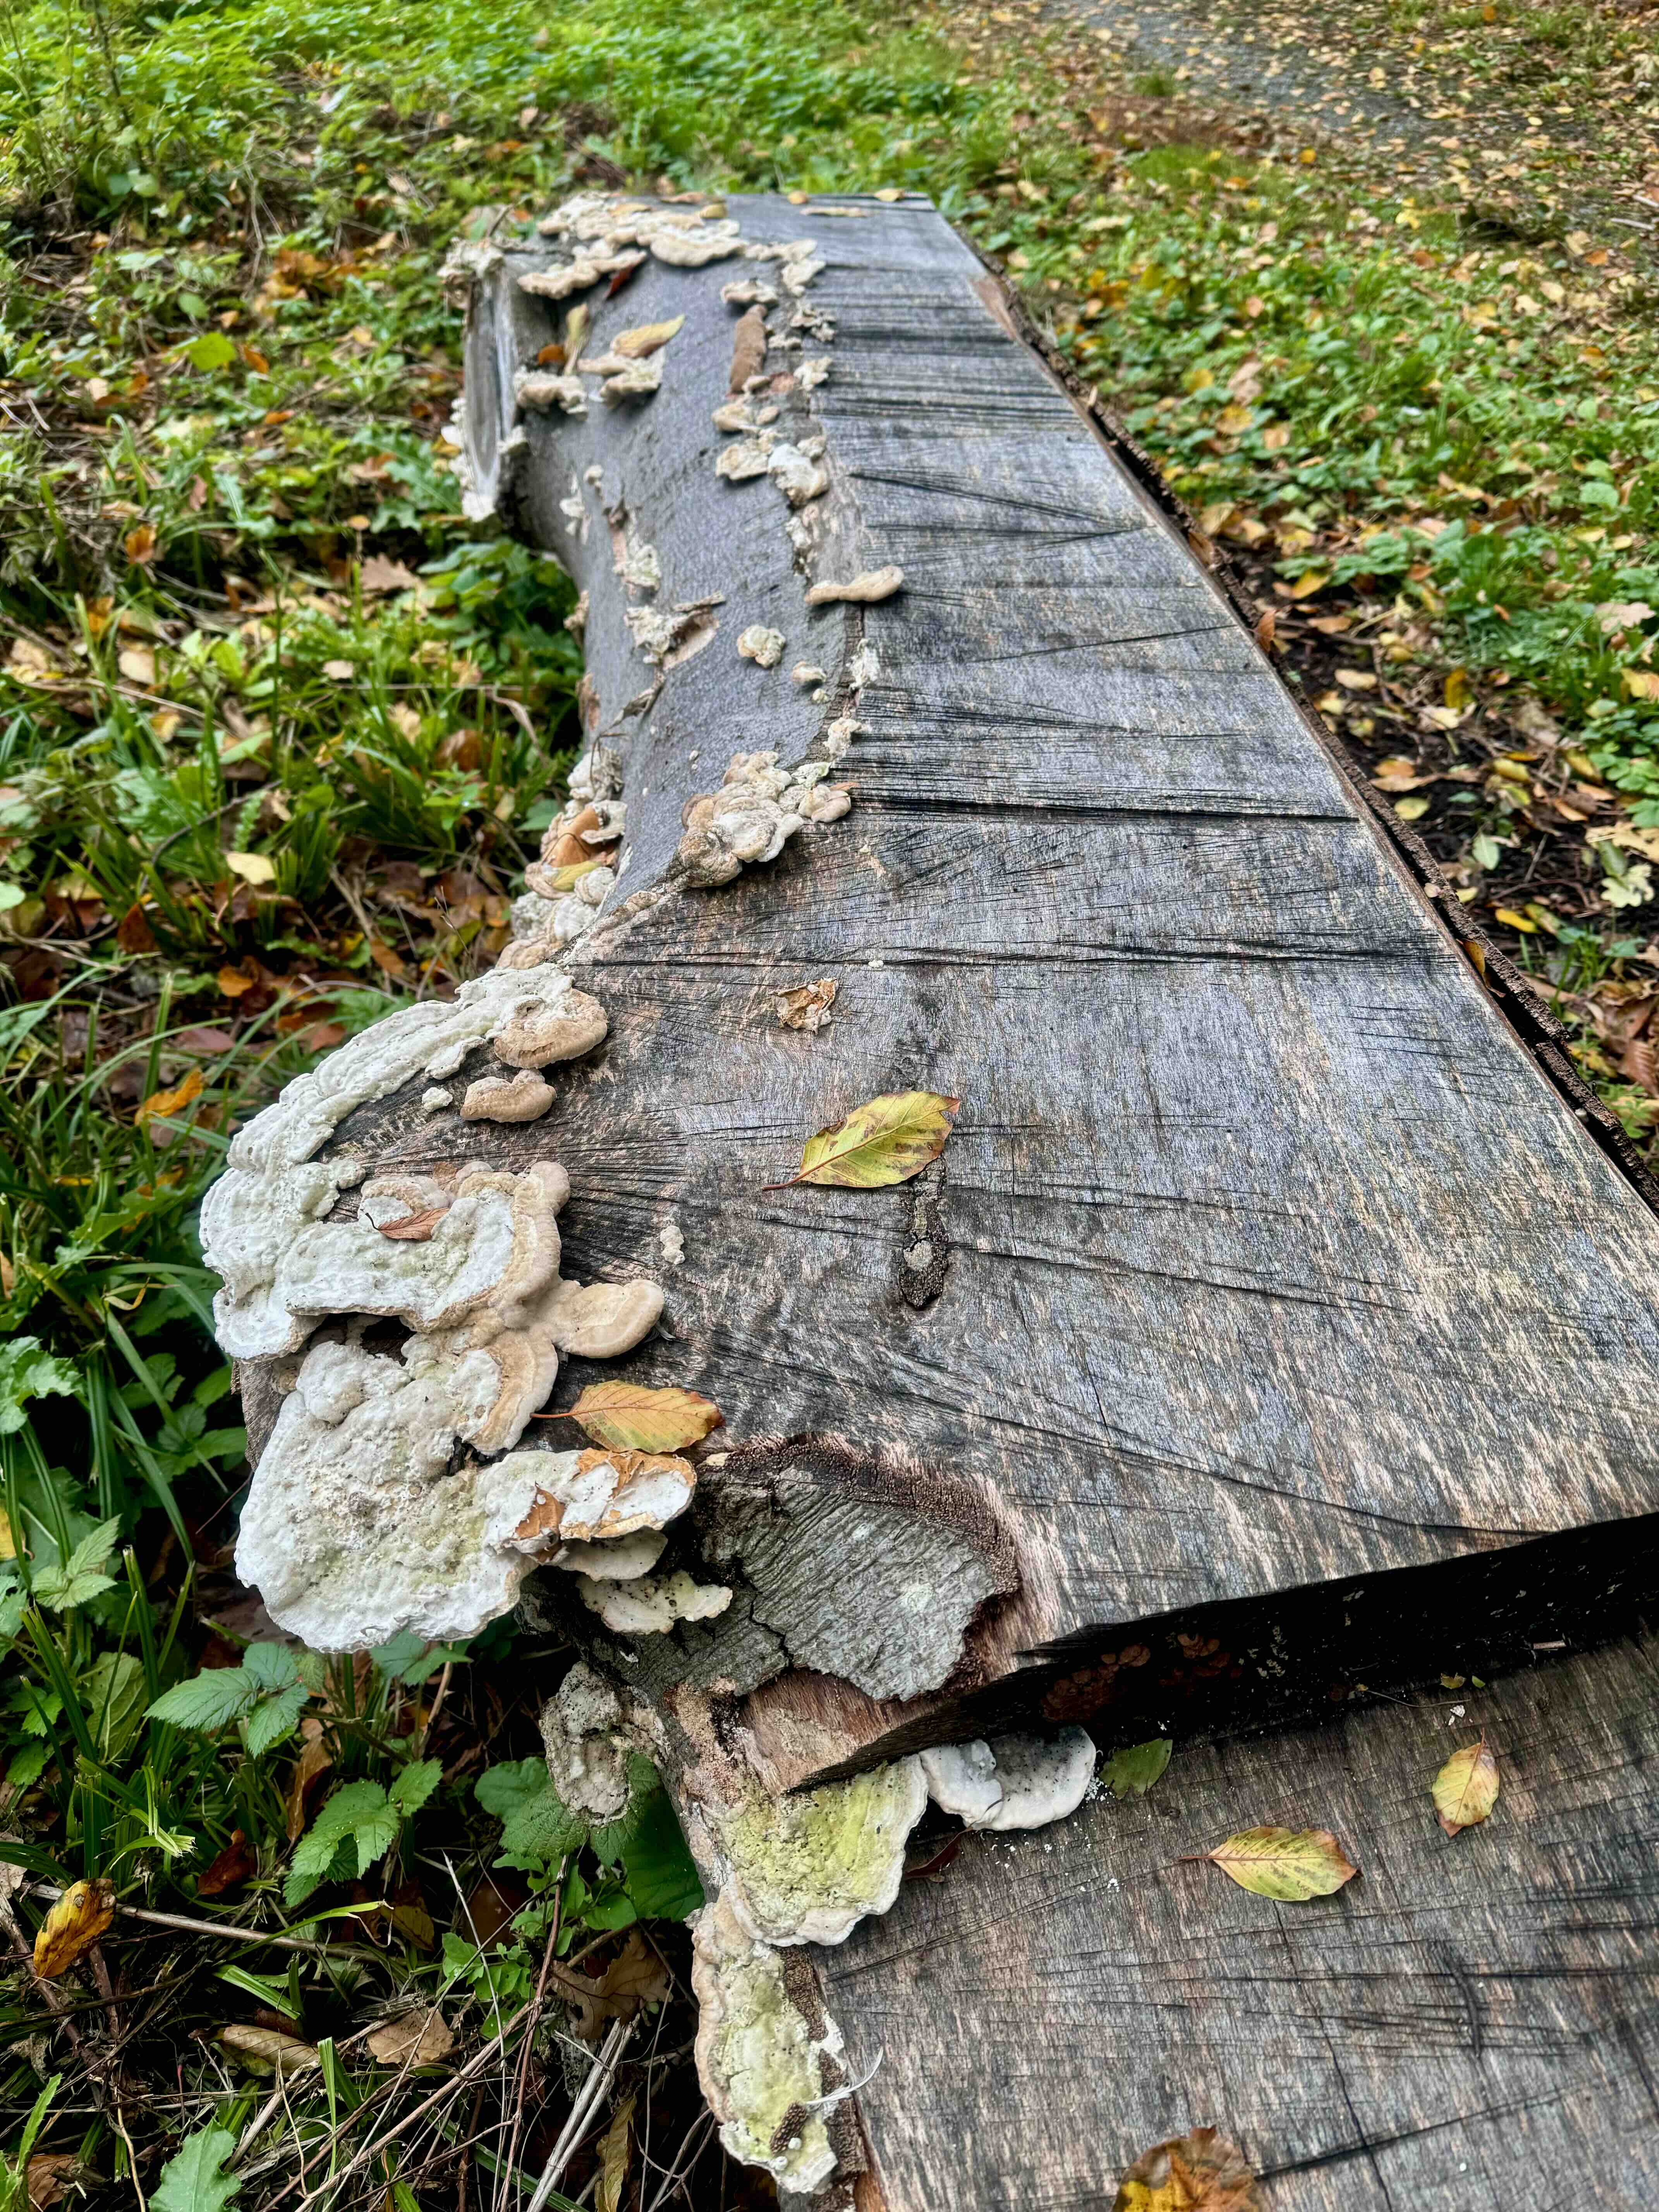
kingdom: Fungi
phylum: Basidiomycota
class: Agaricomycetes
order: Polyporales
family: Polyporaceae
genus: Trametes
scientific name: Trametes hirsuta
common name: håret læderporesvamp
